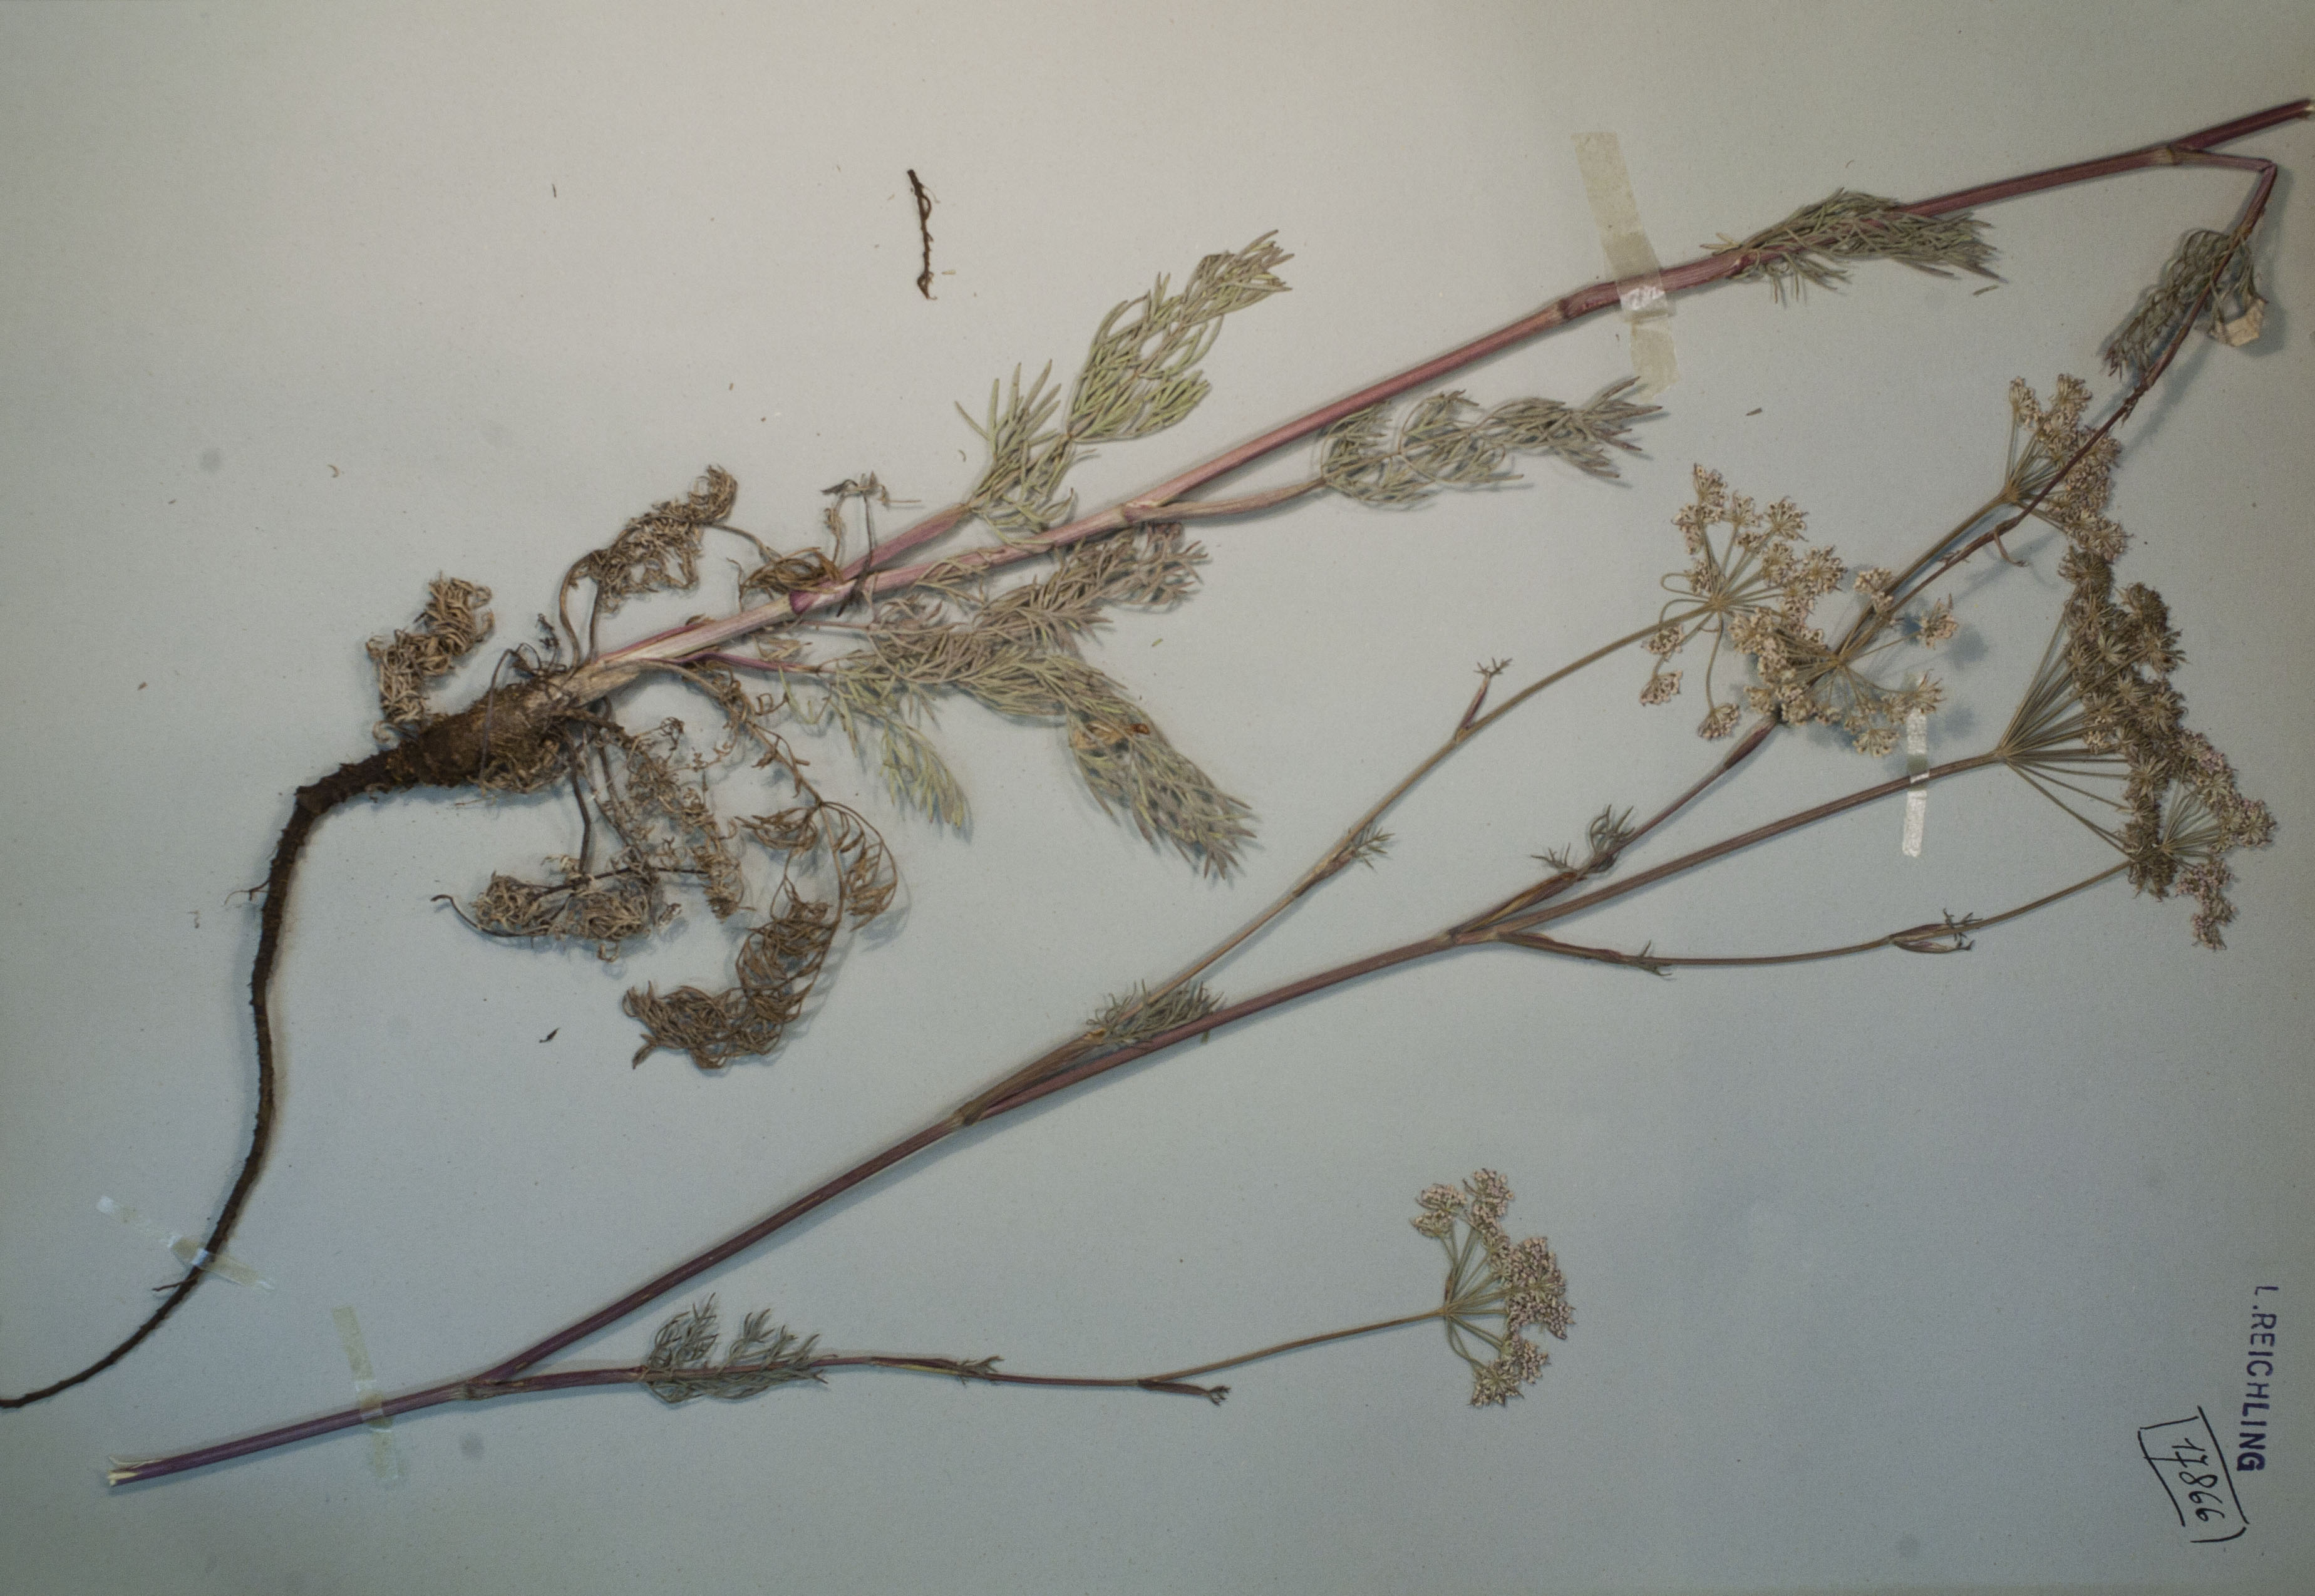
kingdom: Plantae
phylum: Tracheophyta
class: Magnoliopsida
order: Apiales
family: Apiaceae
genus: Seseli
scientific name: Seseli annuum
